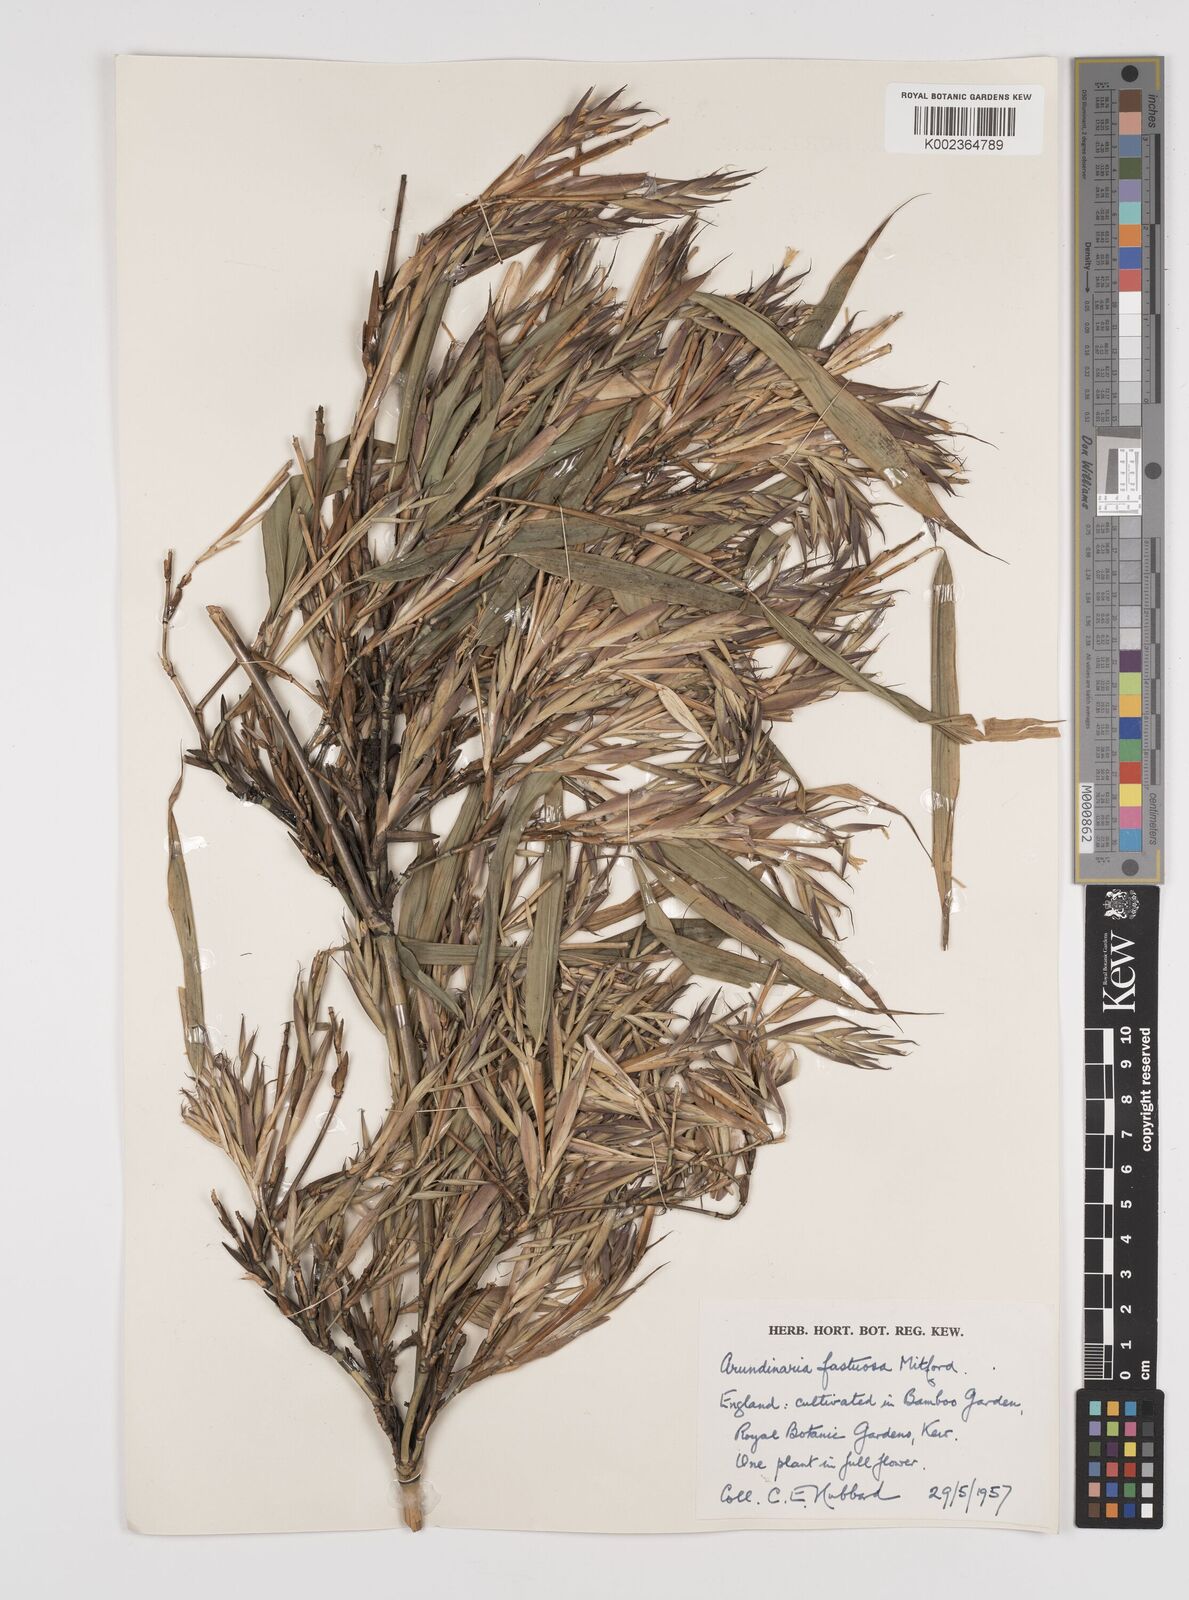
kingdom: Plantae
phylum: Tracheophyta
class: Liliopsida
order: Poales
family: Poaceae
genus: Semiarundinaria
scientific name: Semiarundinaria
